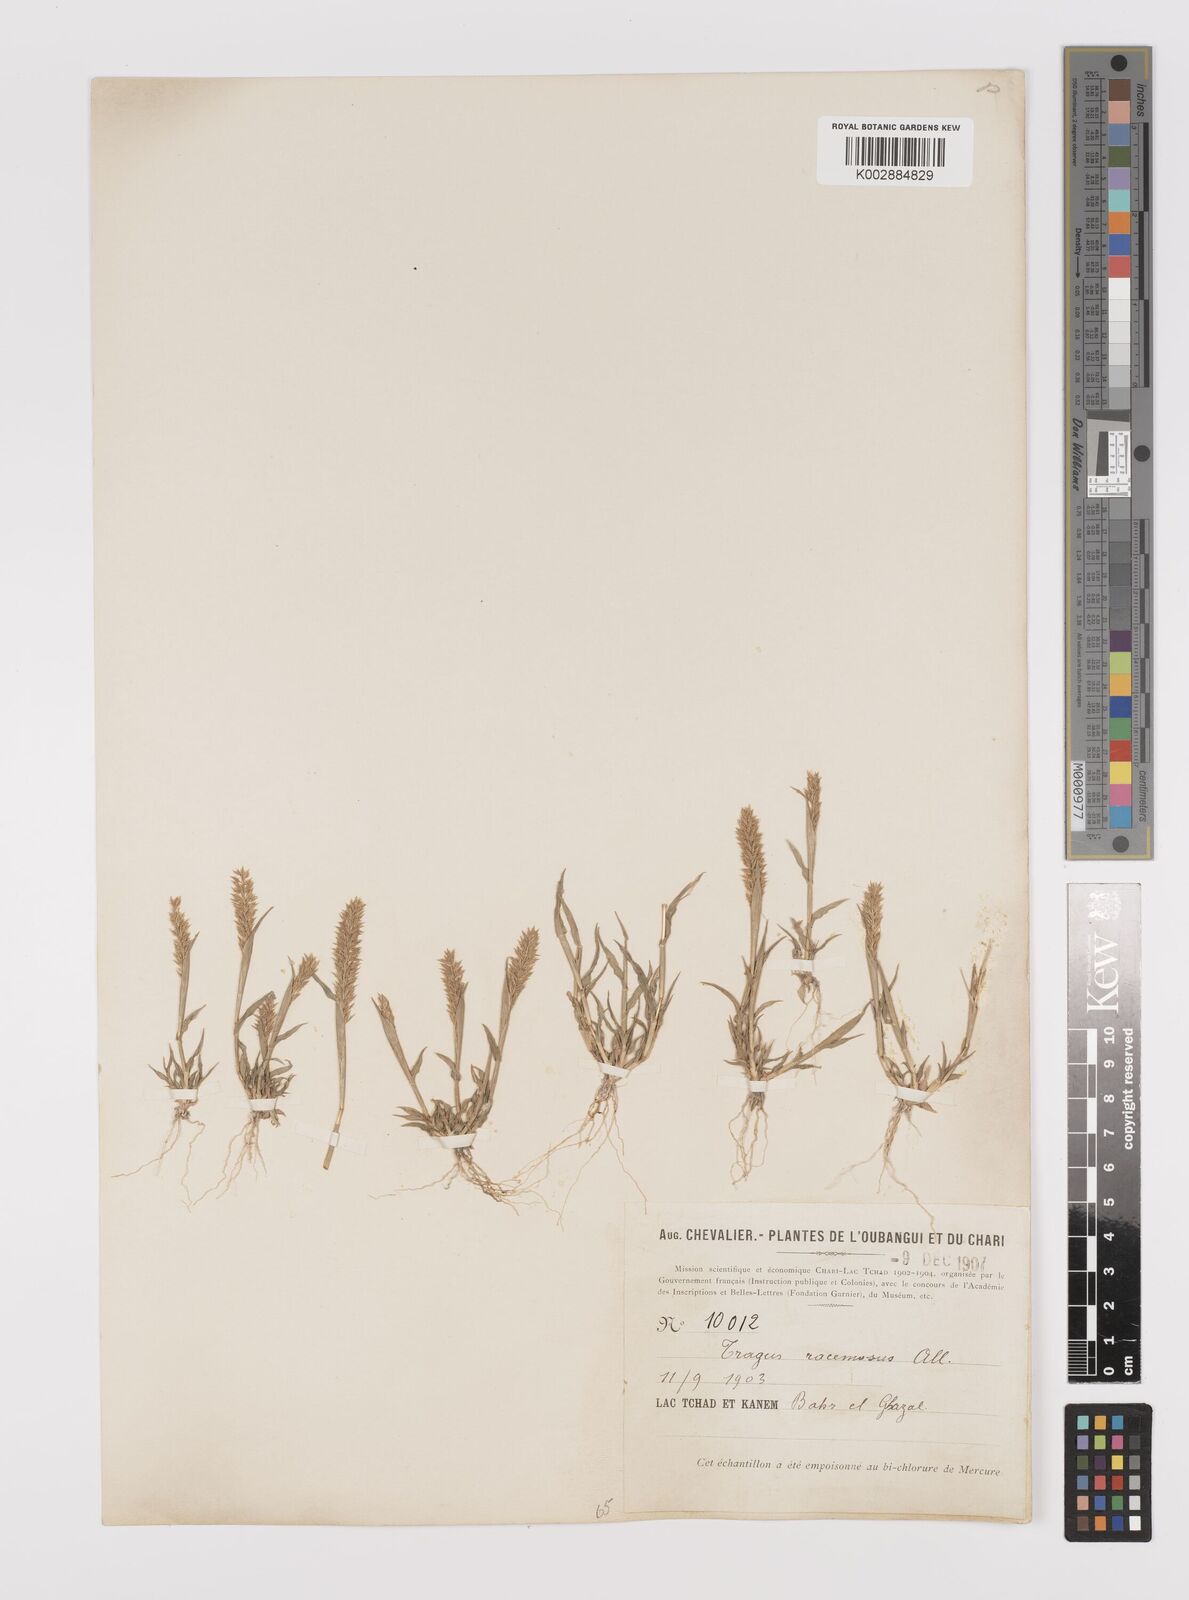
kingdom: Plantae
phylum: Tracheophyta
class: Liliopsida
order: Poales
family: Poaceae
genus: Tragus
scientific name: Tragus racemosus
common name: European bur-grass
